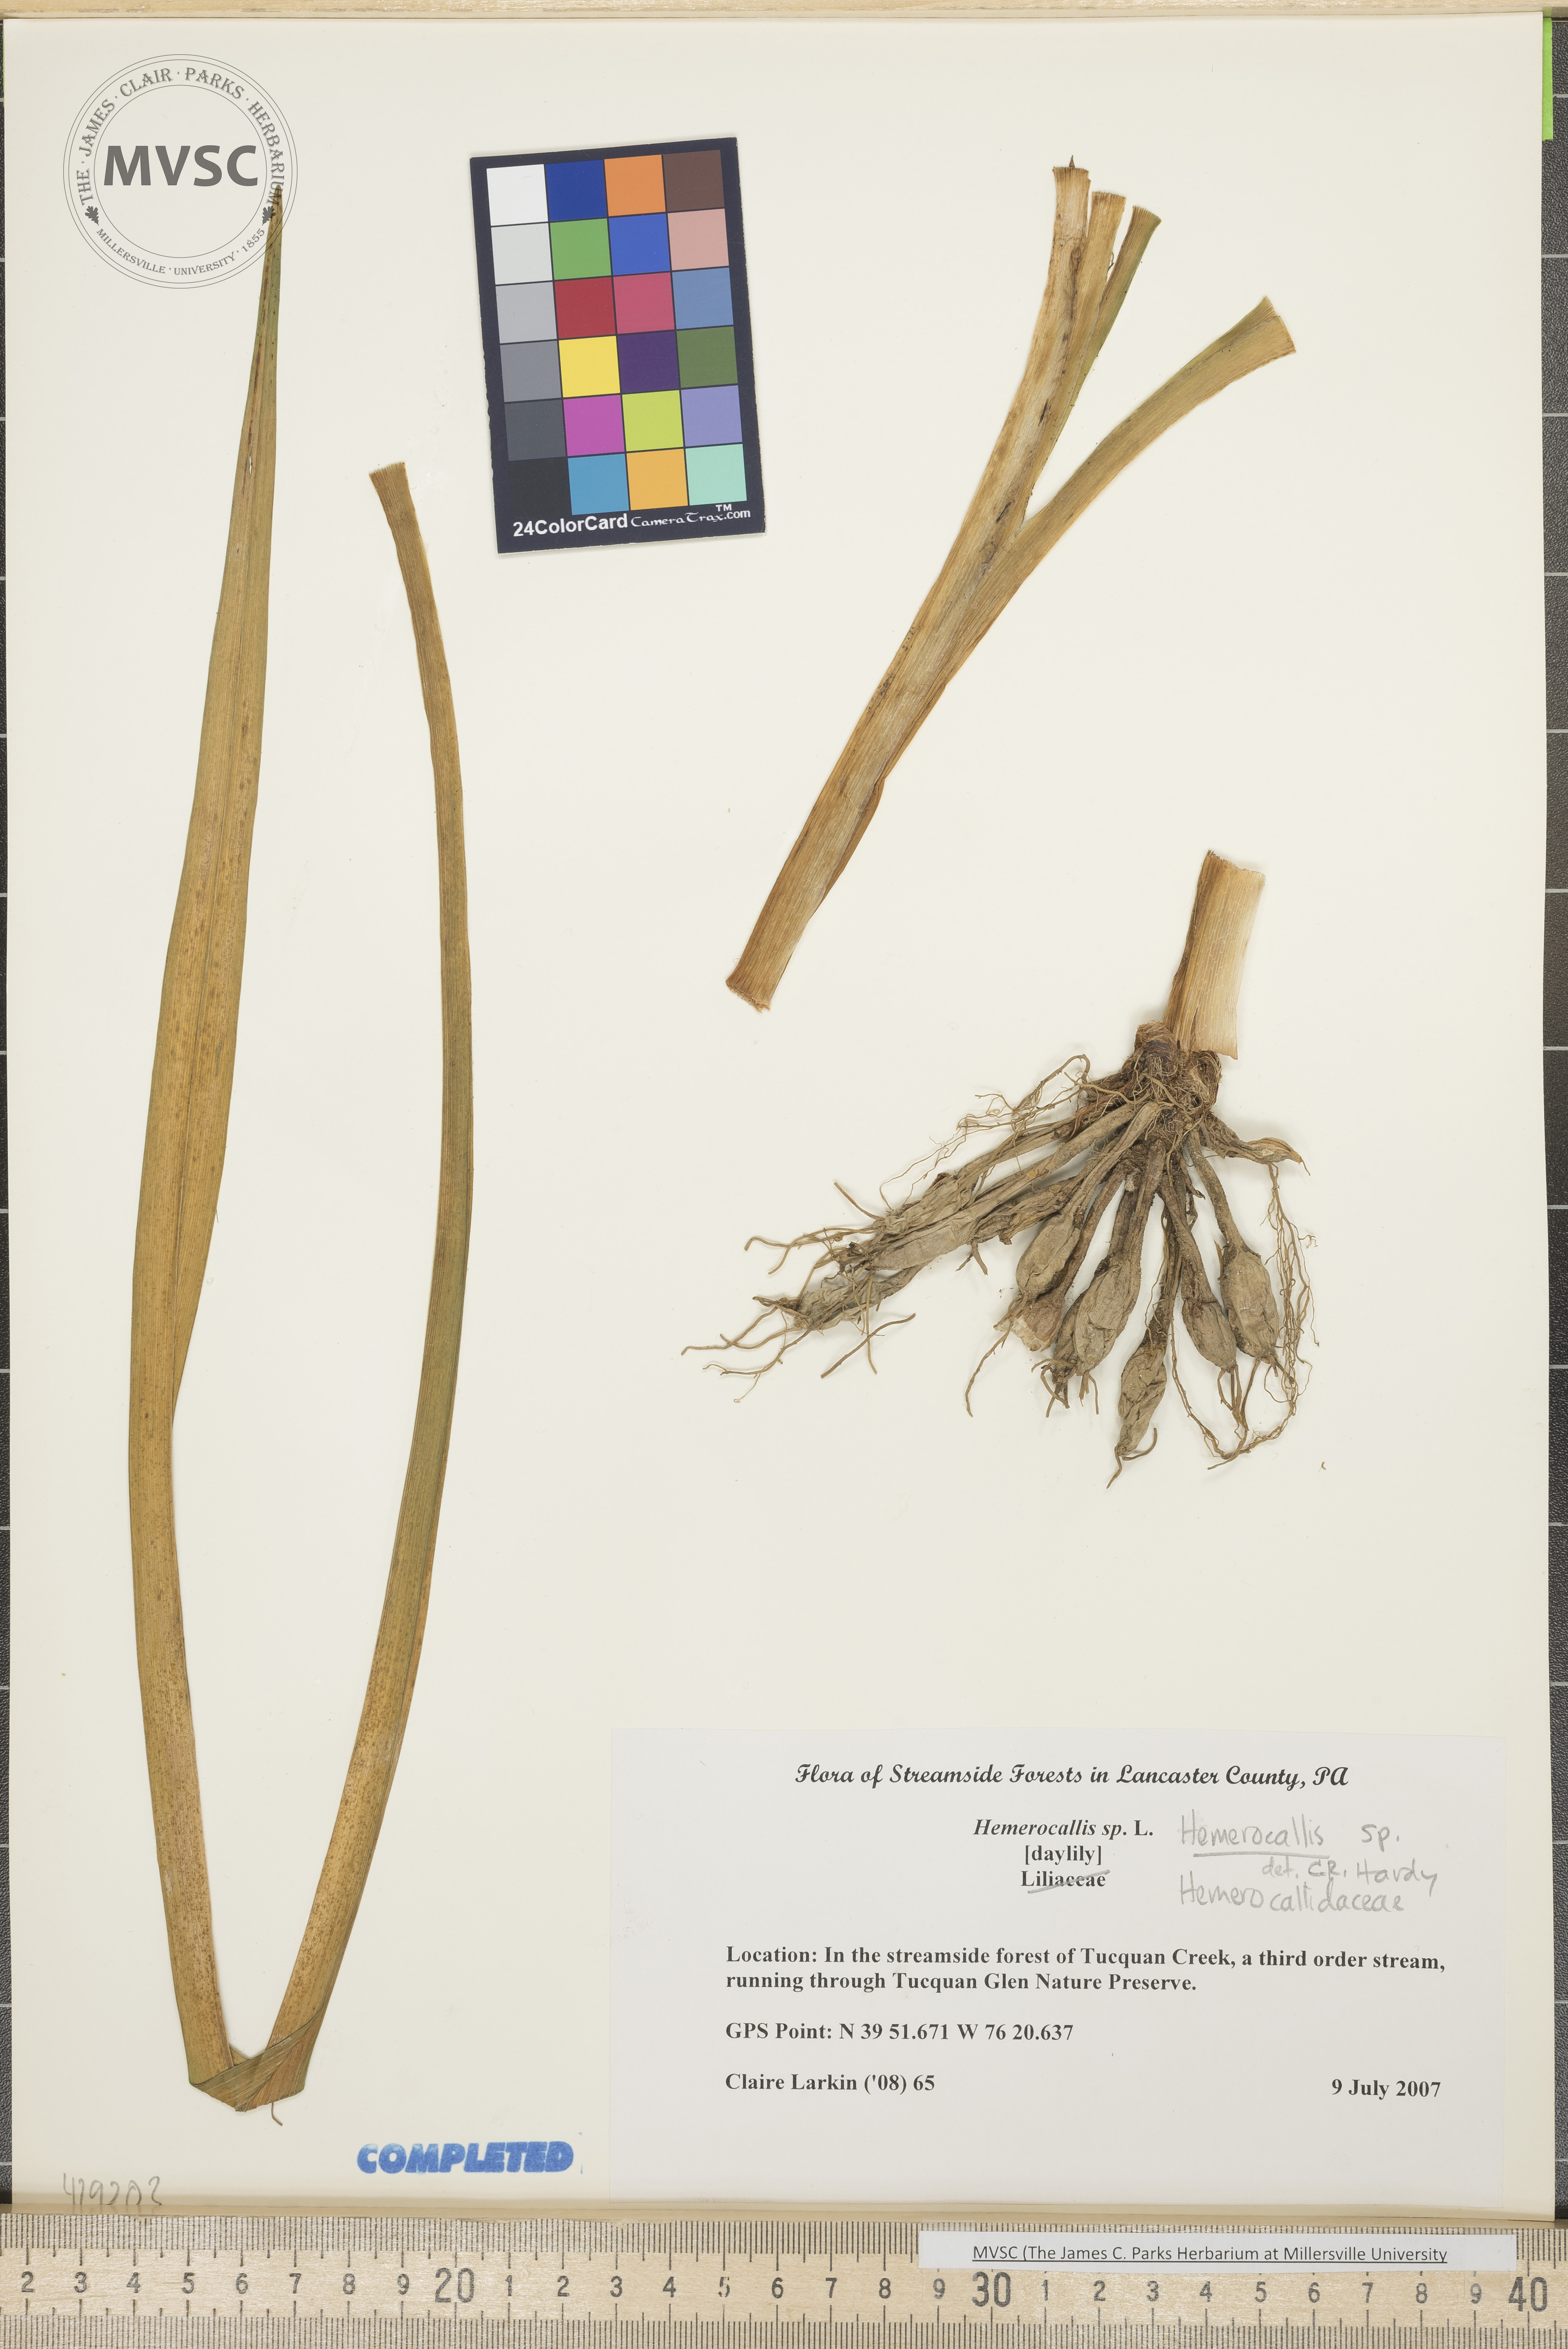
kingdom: Plantae
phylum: Tracheophyta
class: Liliopsida
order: Asparagales
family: Asphodelaceae
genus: Hemerocallis
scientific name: Hemerocallis
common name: Day lily
